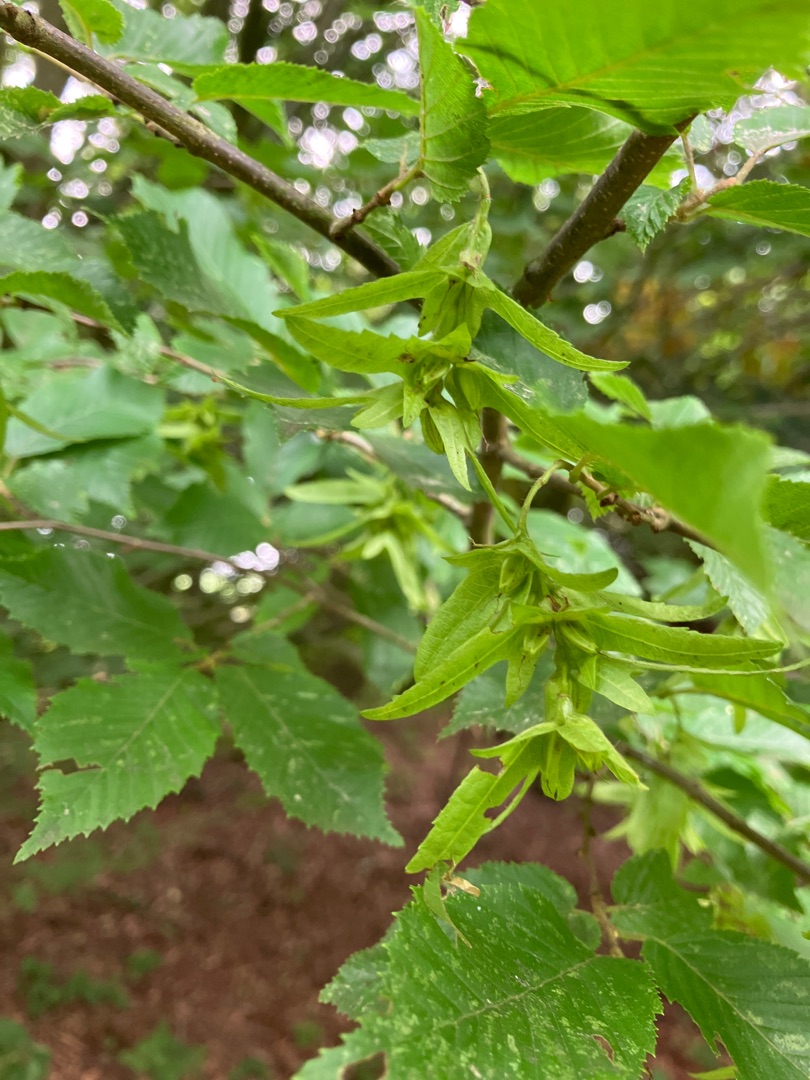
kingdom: Plantae
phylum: Tracheophyta
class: Magnoliopsida
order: Fagales
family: Betulaceae
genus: Carpinus
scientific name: Carpinus betulus
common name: Avnbøg
